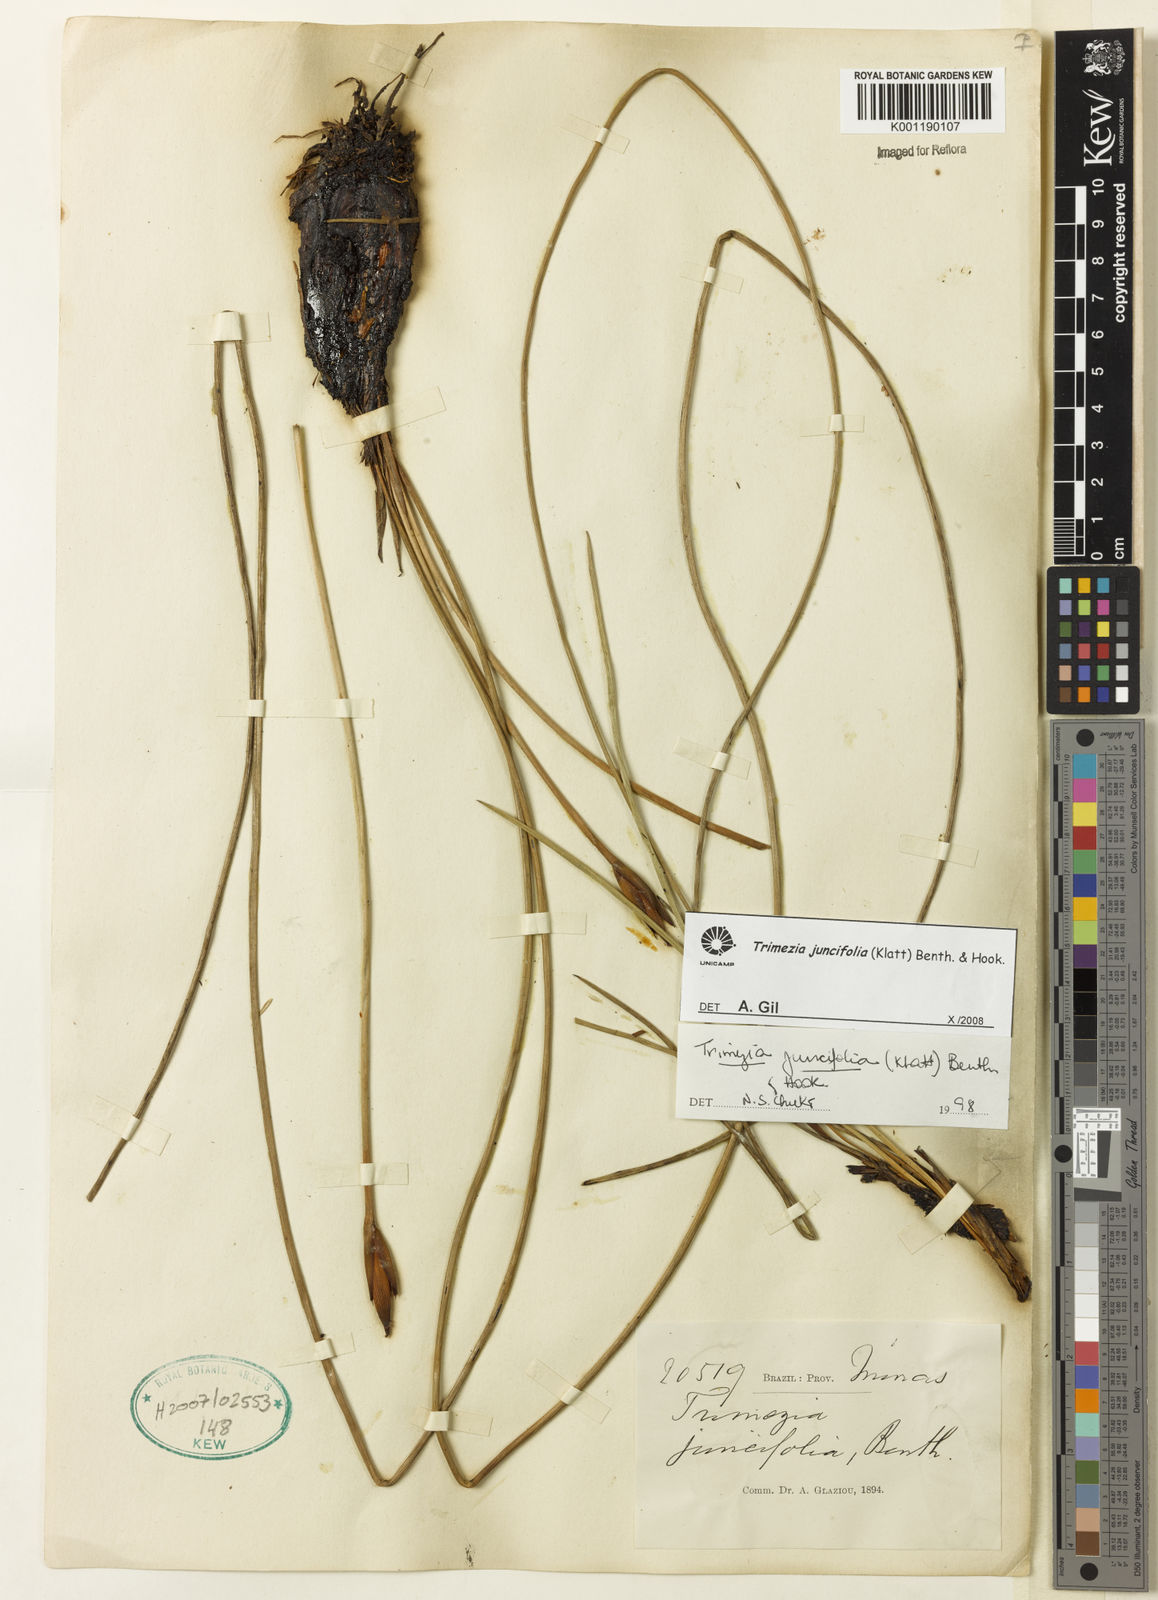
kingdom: Plantae
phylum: Tracheophyta
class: Liliopsida
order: Asparagales
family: Iridaceae
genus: Trimezia
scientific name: Trimezia juncifolia
